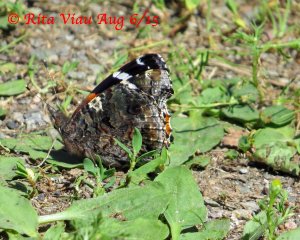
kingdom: Animalia
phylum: Arthropoda
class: Insecta
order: Lepidoptera
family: Nymphalidae
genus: Vanessa
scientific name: Vanessa atalanta
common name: Red Admiral
